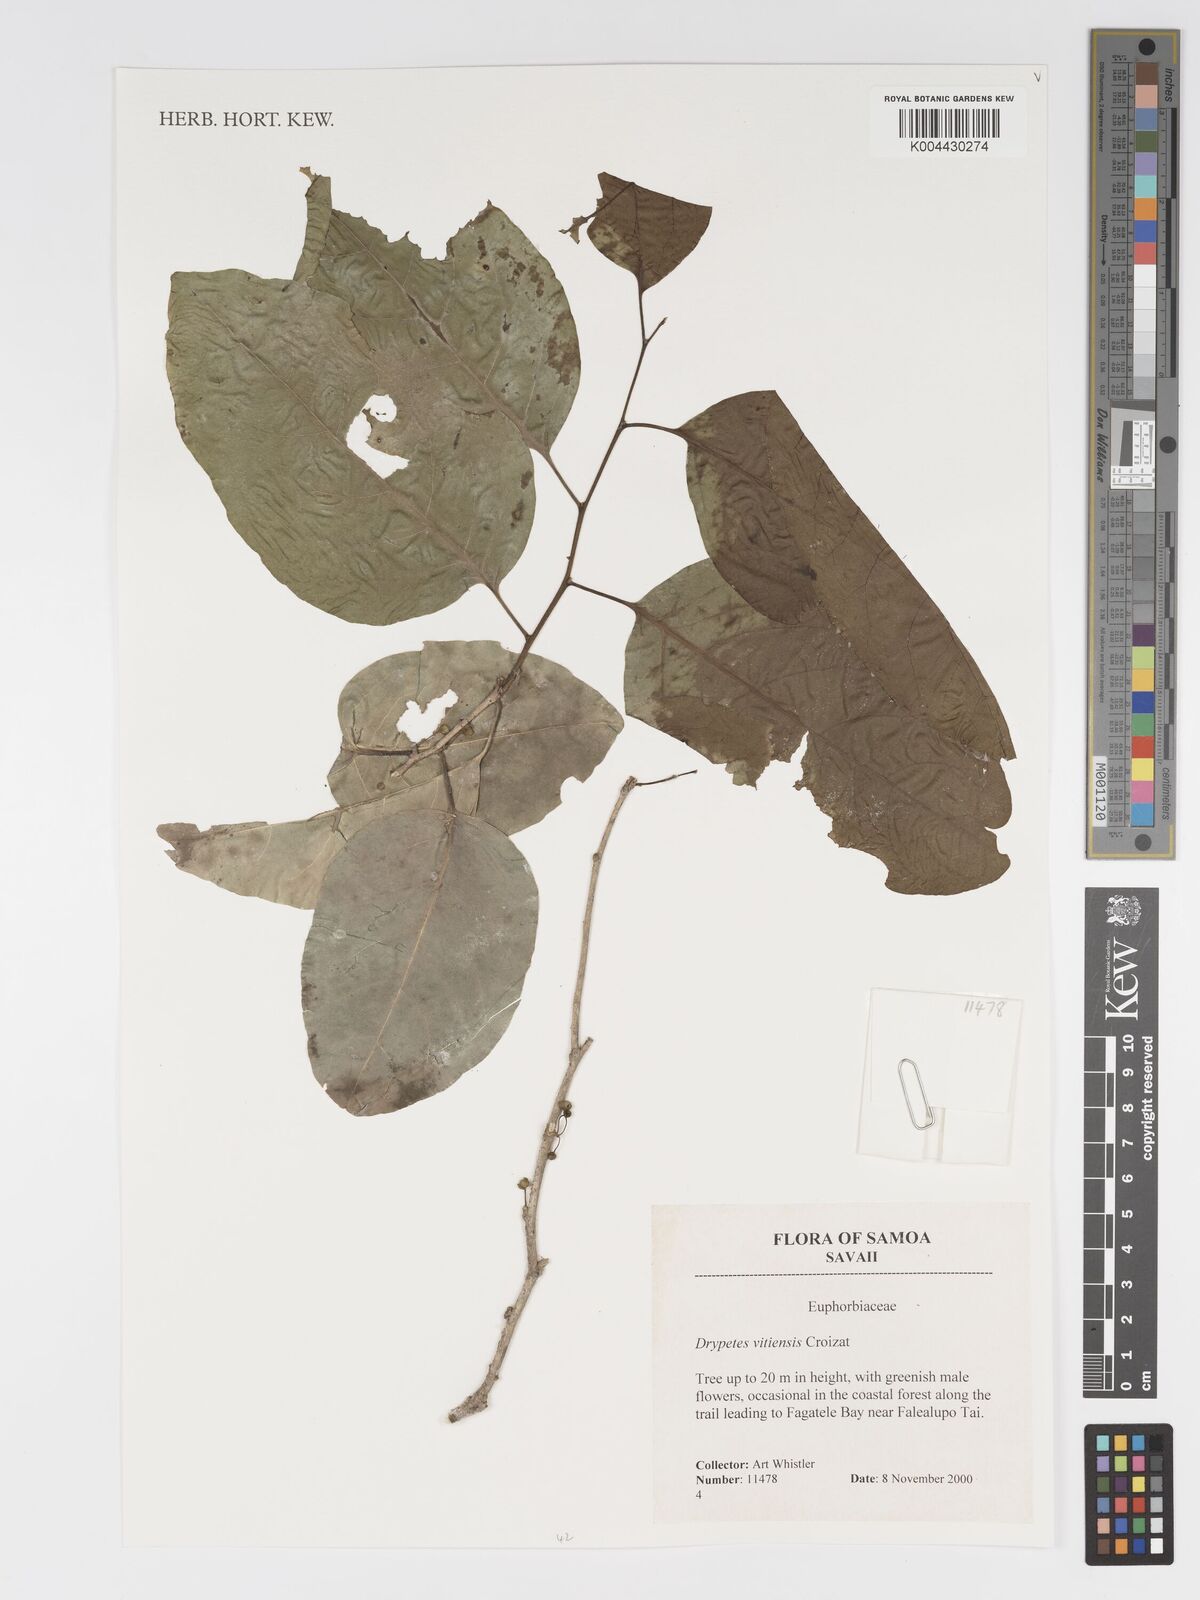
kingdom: Plantae
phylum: Tracheophyta
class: Magnoliopsida
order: Malpighiales
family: Putranjivaceae
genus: Drypetes
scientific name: Drypetes vitiensis
